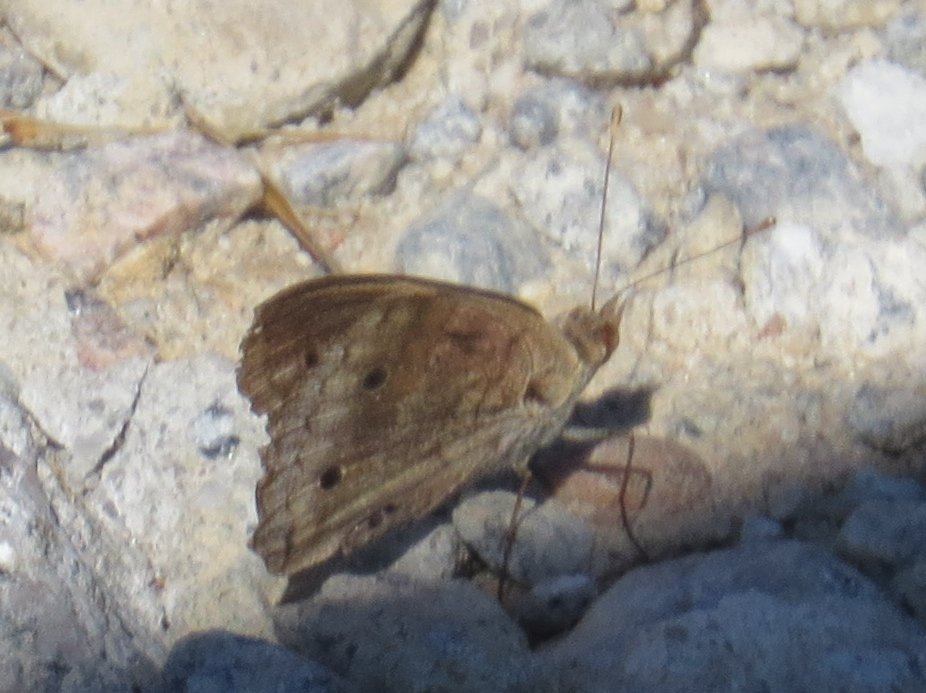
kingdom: Animalia
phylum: Arthropoda
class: Insecta
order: Lepidoptera
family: Nymphalidae
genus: Junonia
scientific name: Junonia coenia
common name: Common Buckeye
